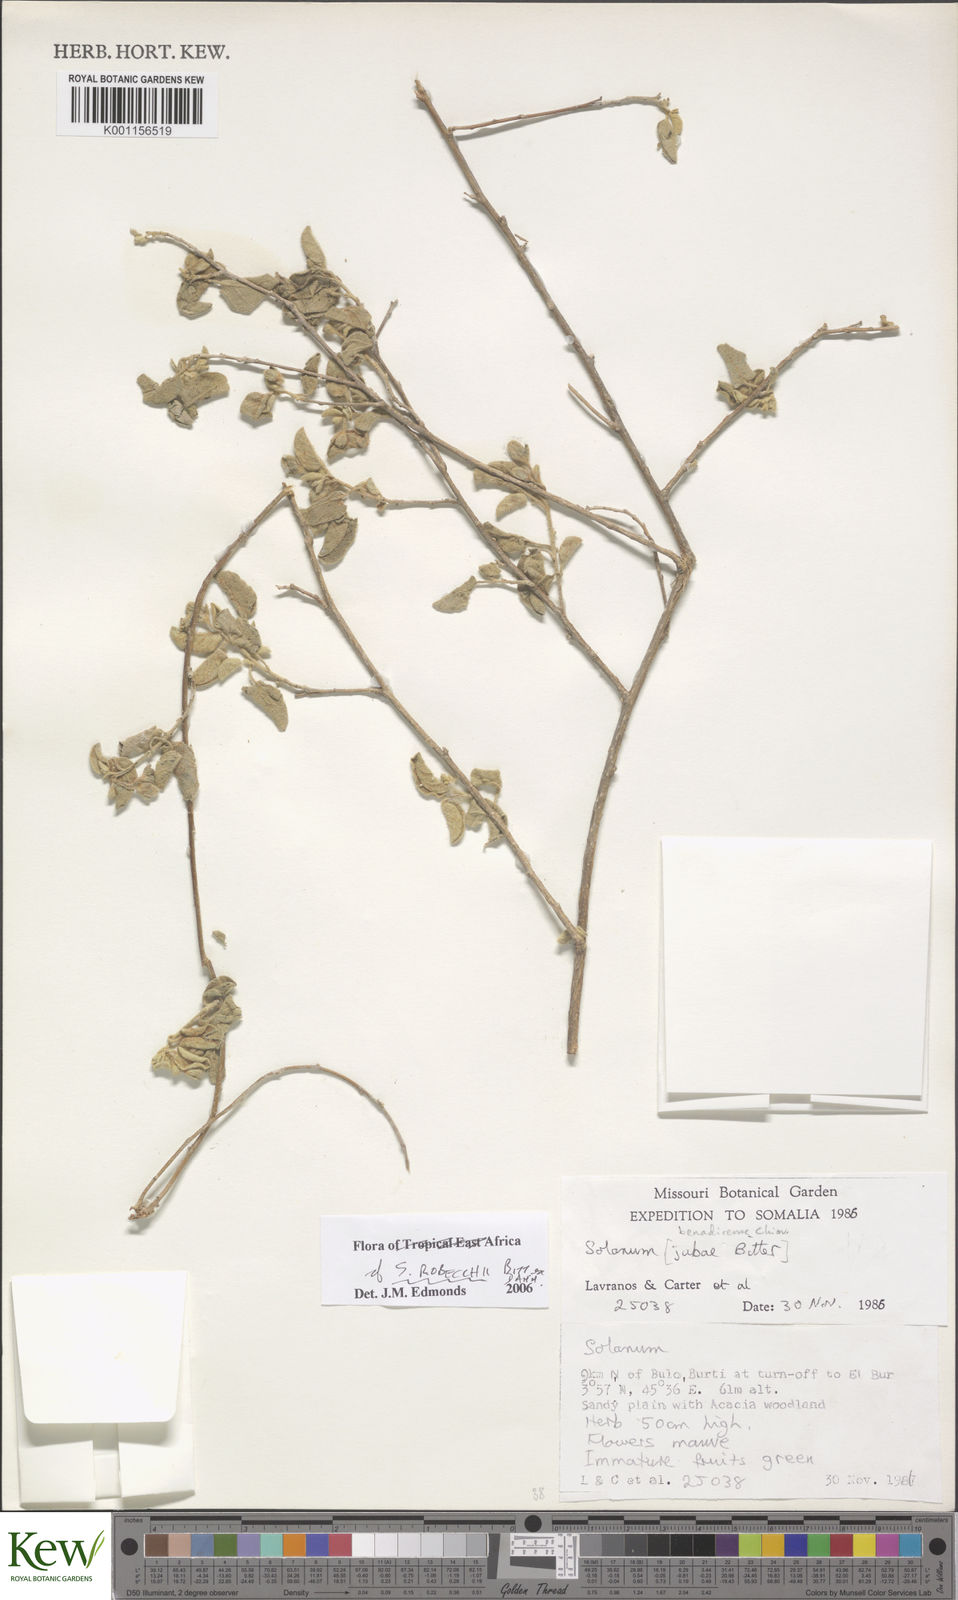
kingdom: Plantae
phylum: Tracheophyta
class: Magnoliopsida
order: Solanales
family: Solanaceae
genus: Solanum
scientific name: Solanum pampaninii
